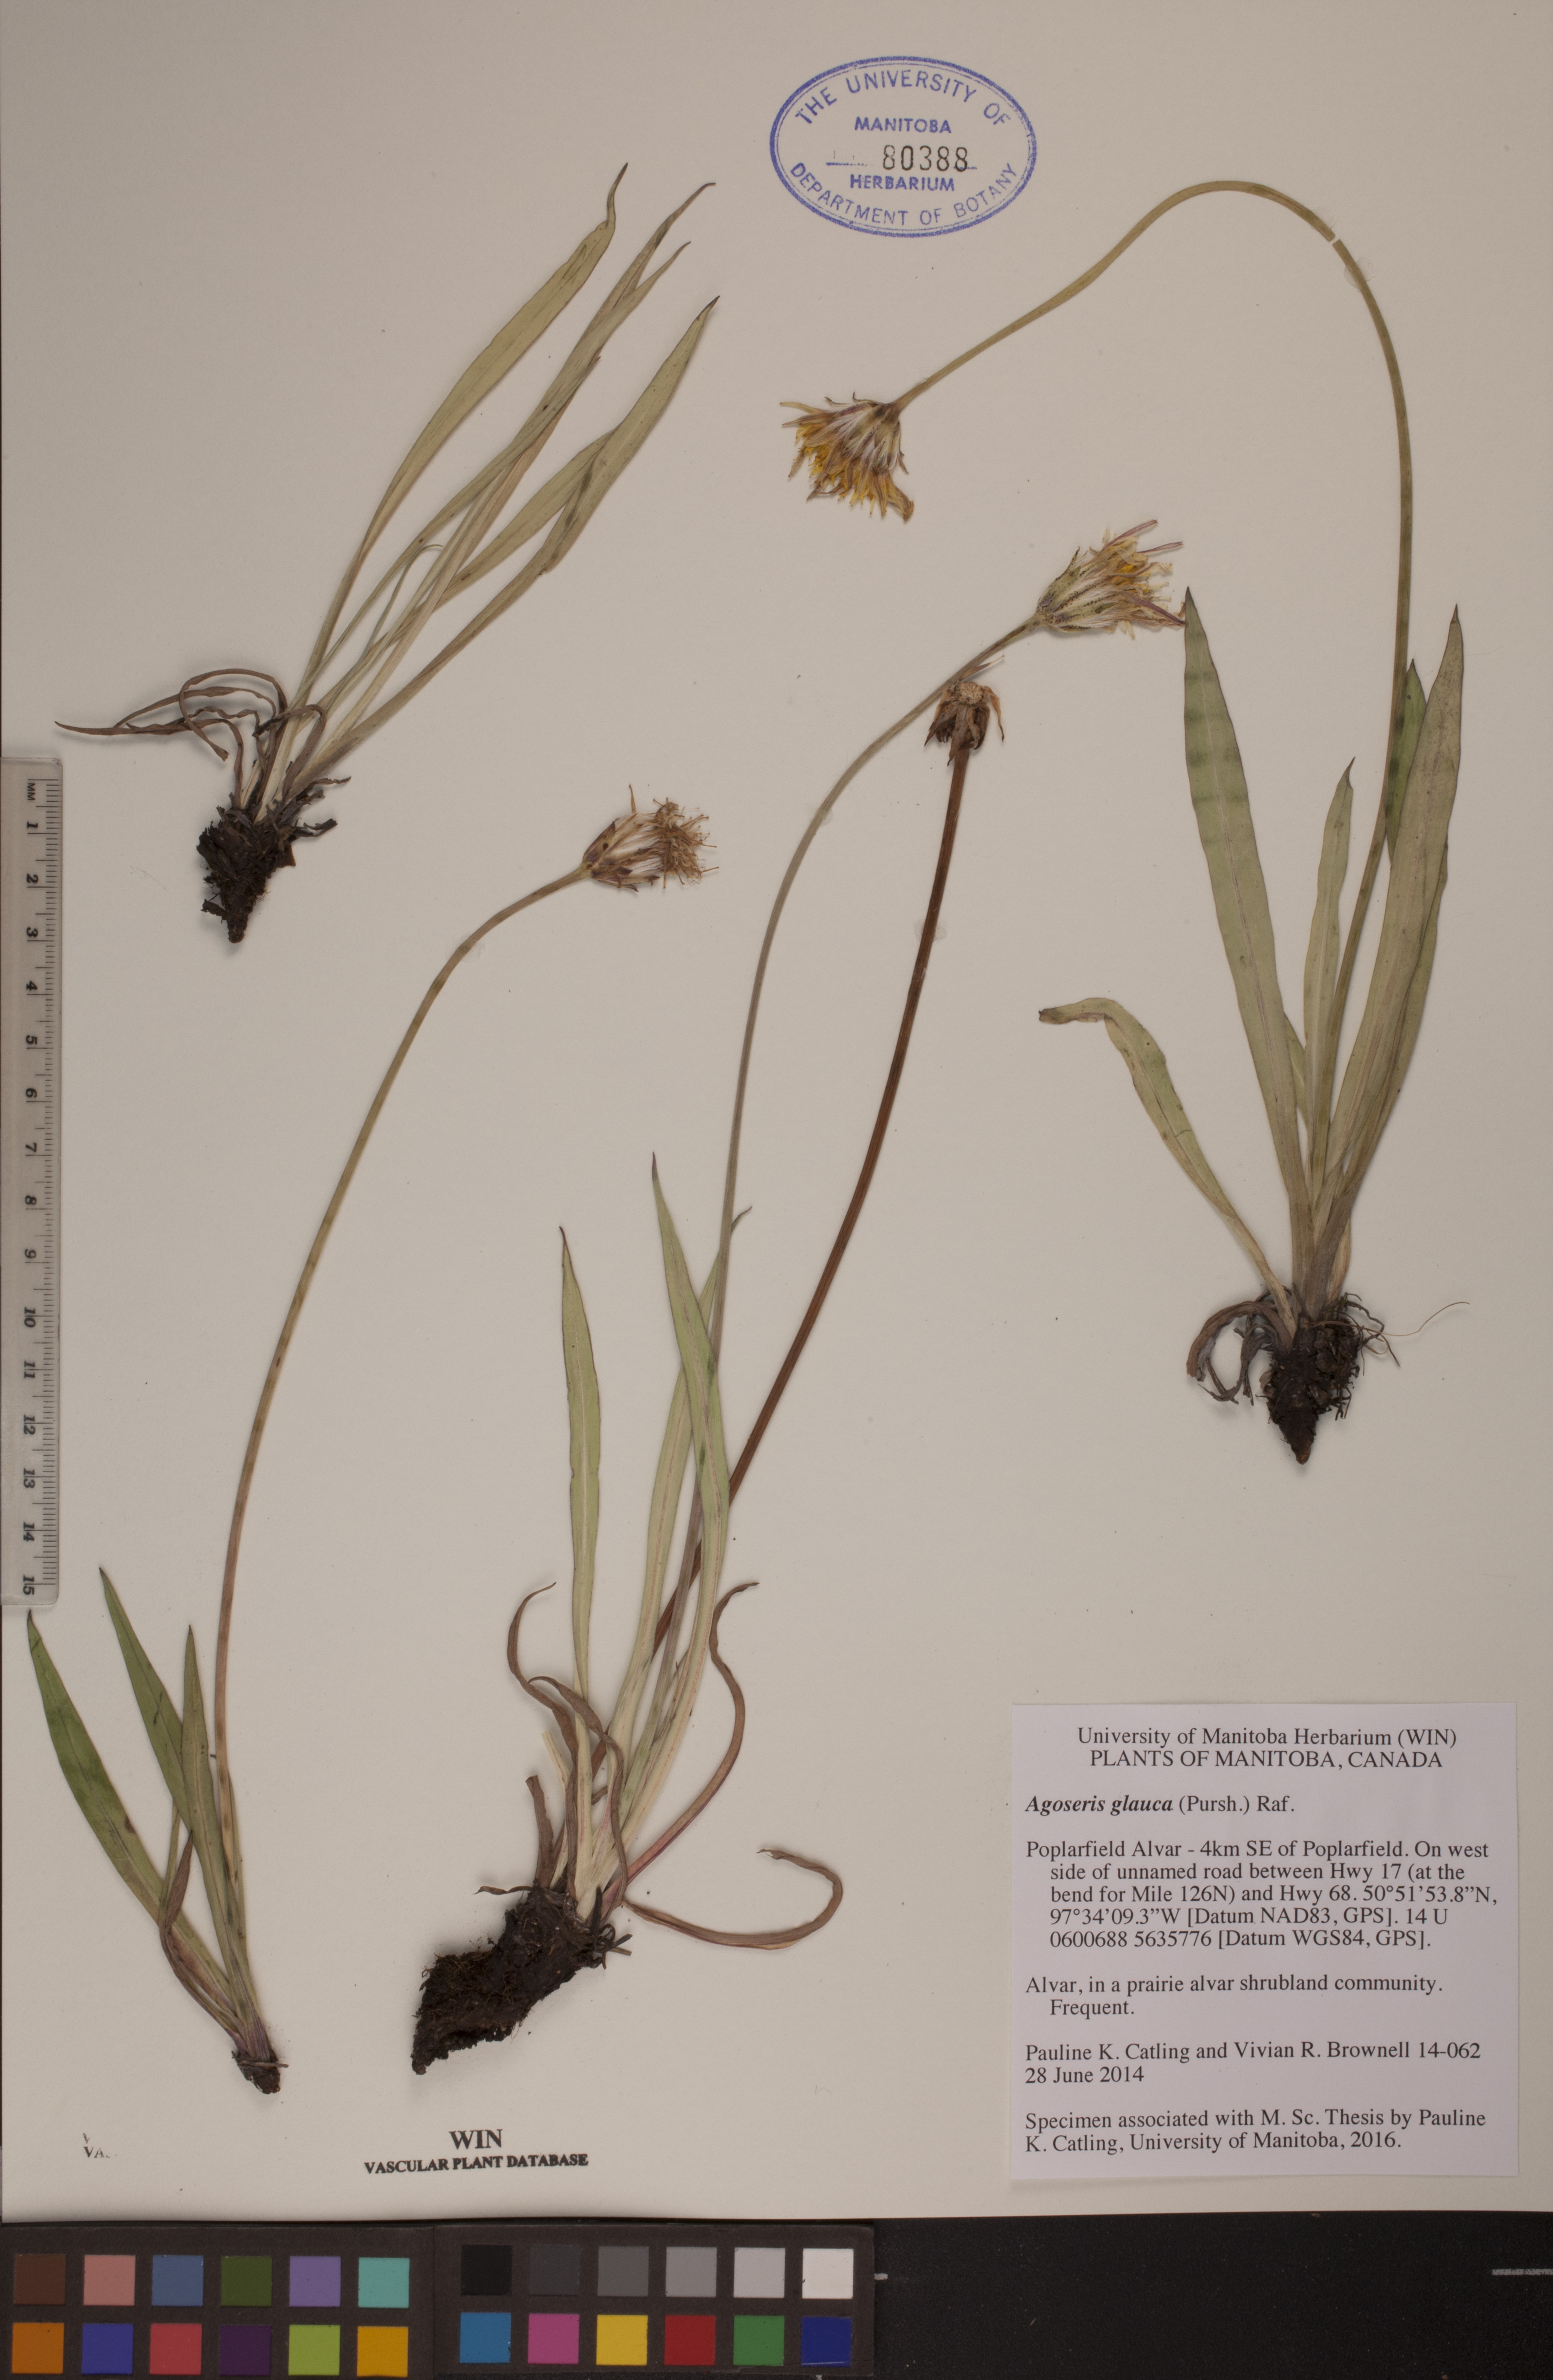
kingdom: Plantae
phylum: Tracheophyta
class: Magnoliopsida
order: Asterales
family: Asteraceae
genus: Agoseris
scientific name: Agoseris glauca
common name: Prairie agoseris
